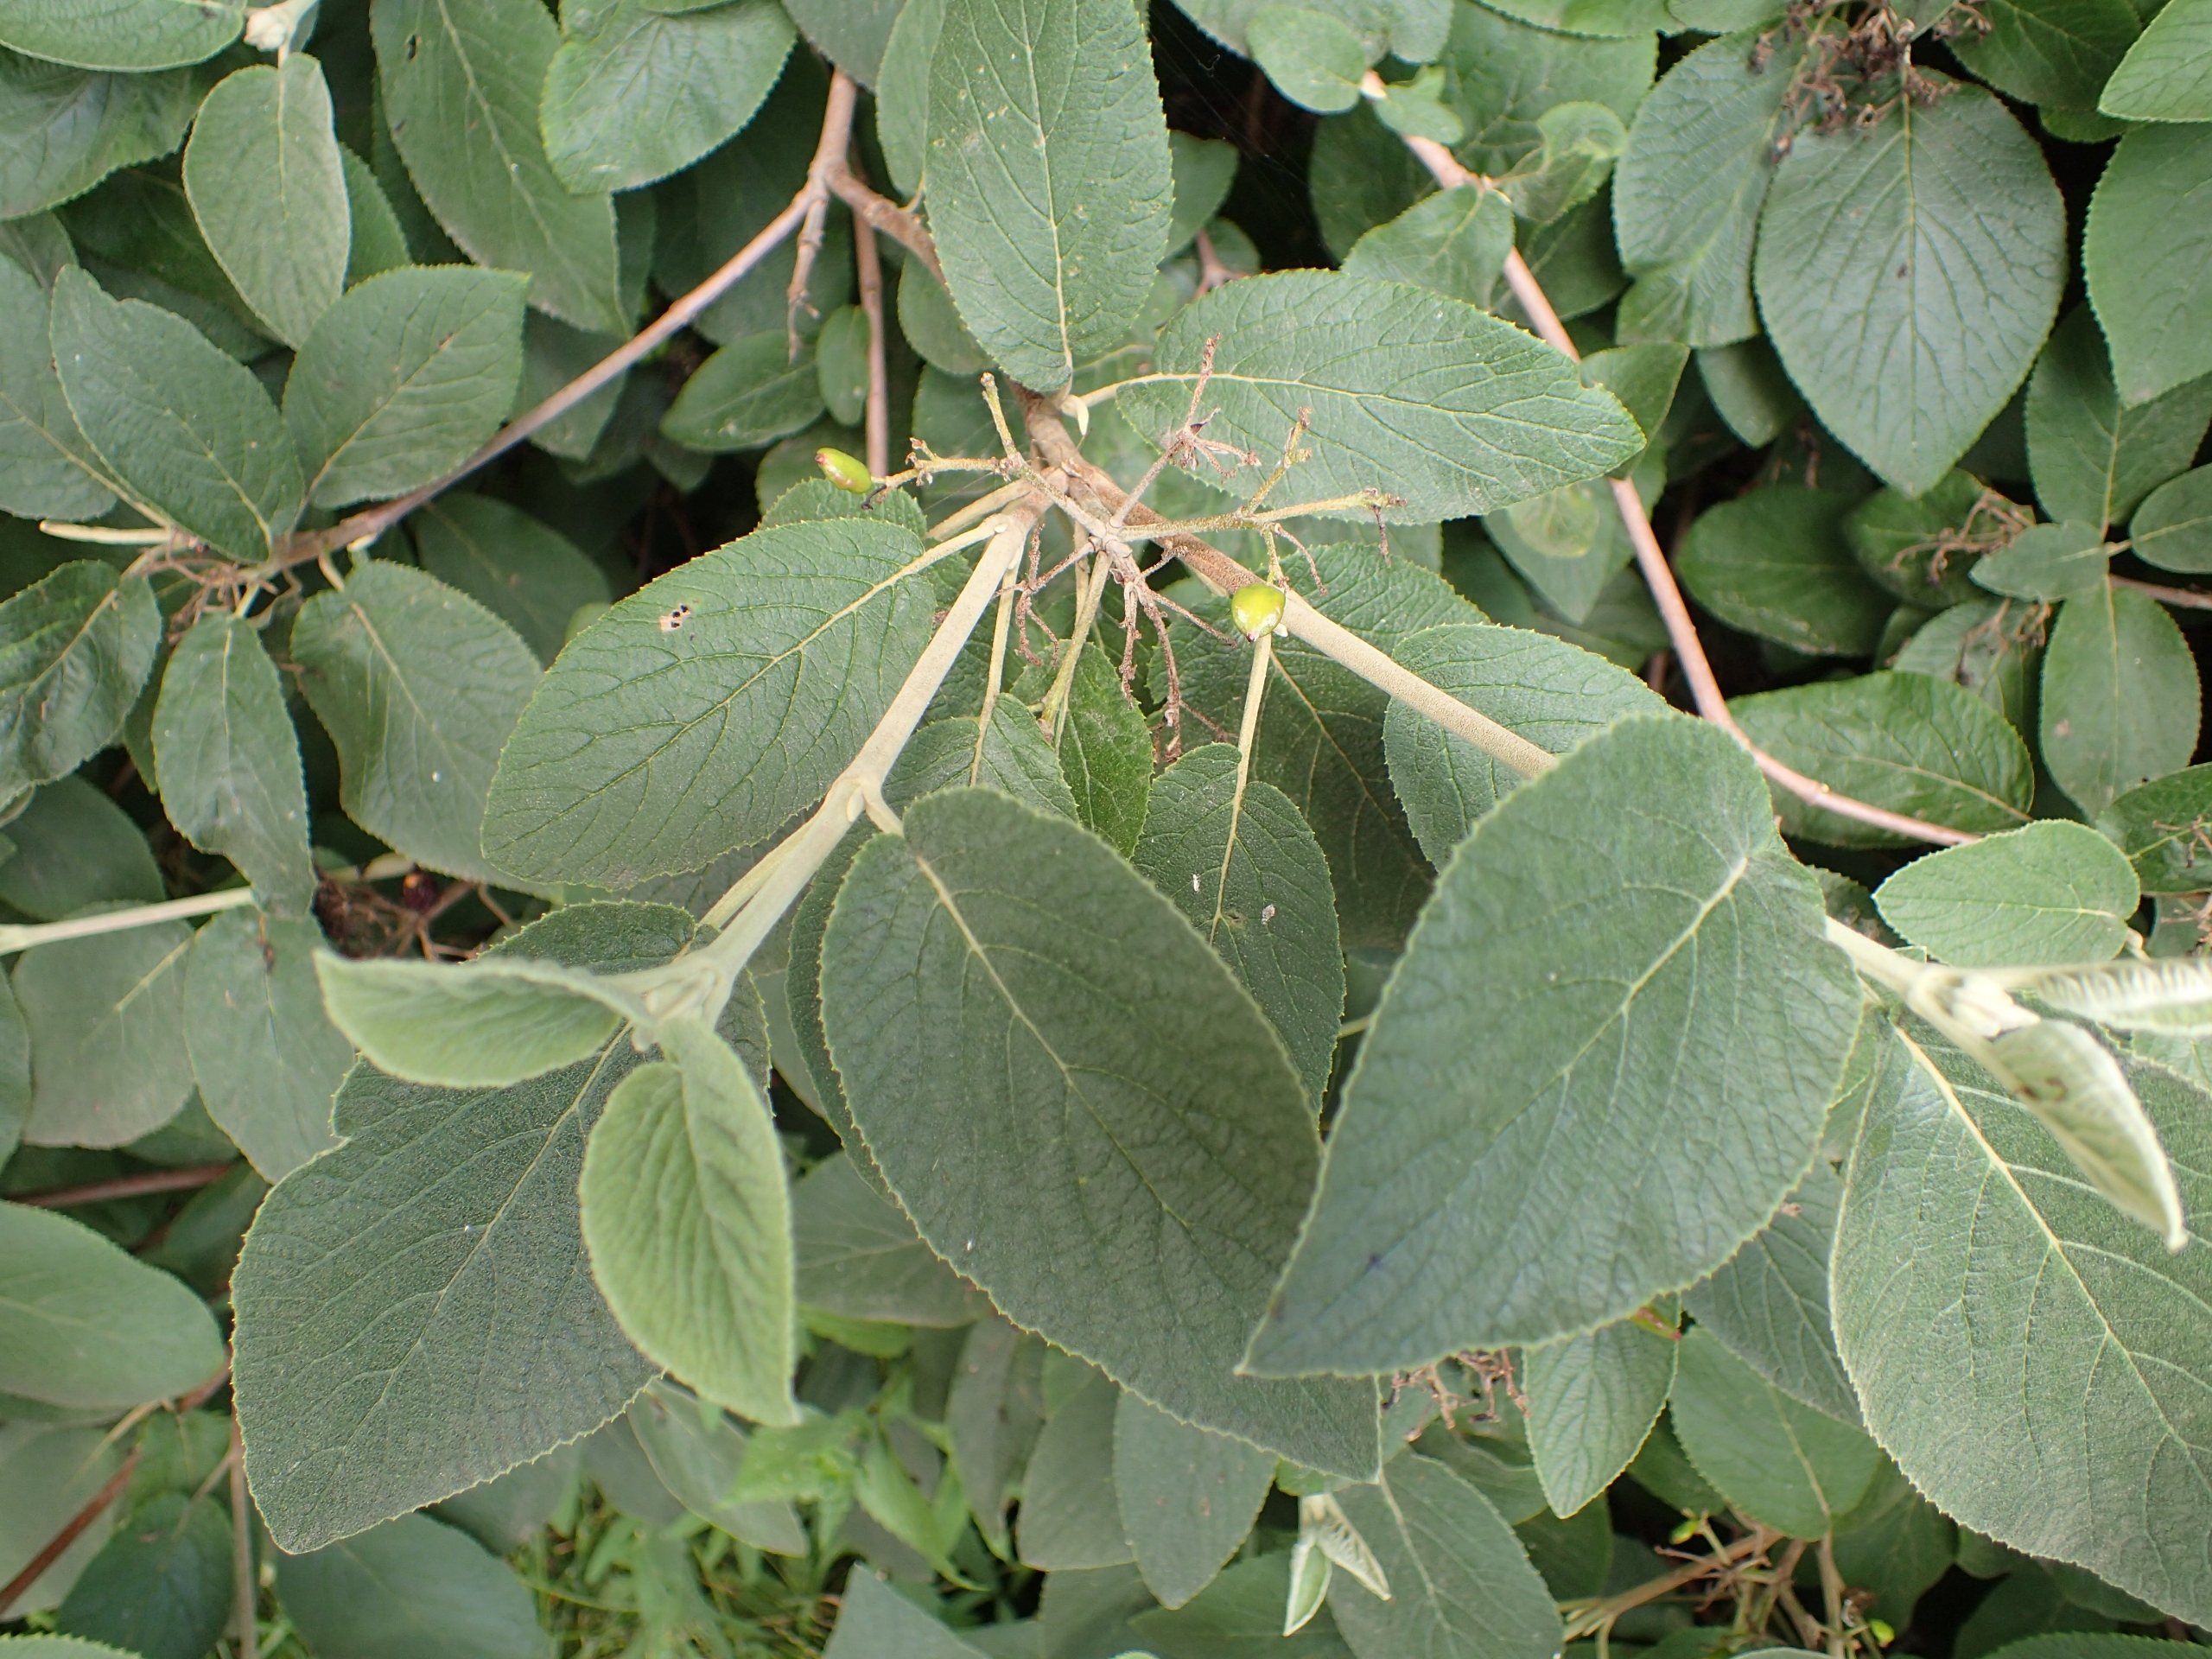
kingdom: Plantae
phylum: Tracheophyta
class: Magnoliopsida
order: Dipsacales
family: Viburnaceae
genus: Viburnum
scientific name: Viburnum lantana
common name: Pibe-kvalkved
